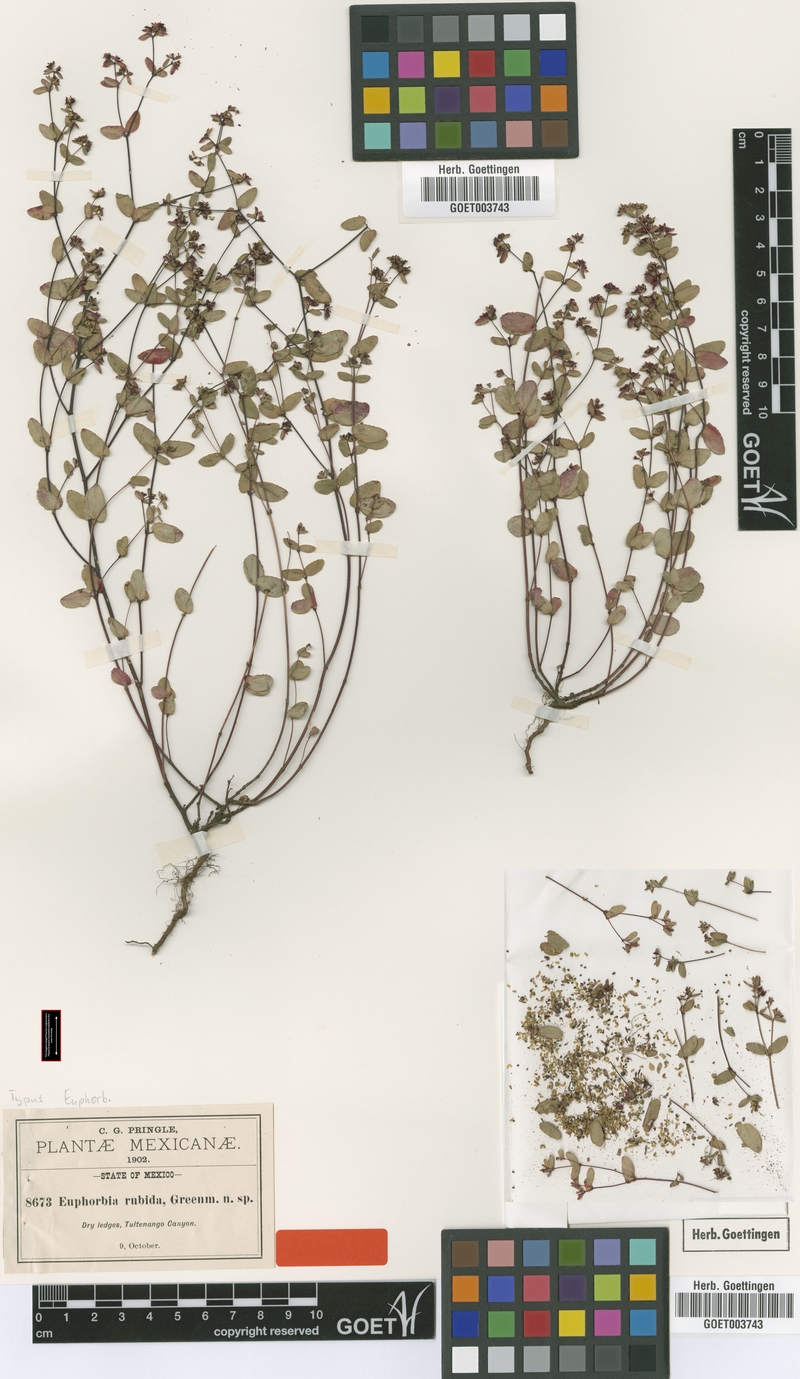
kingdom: Plantae
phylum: Tracheophyta
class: Magnoliopsida
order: Malpighiales
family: Euphorbiaceae
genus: Euphorbia
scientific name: Euphorbia anychioides
